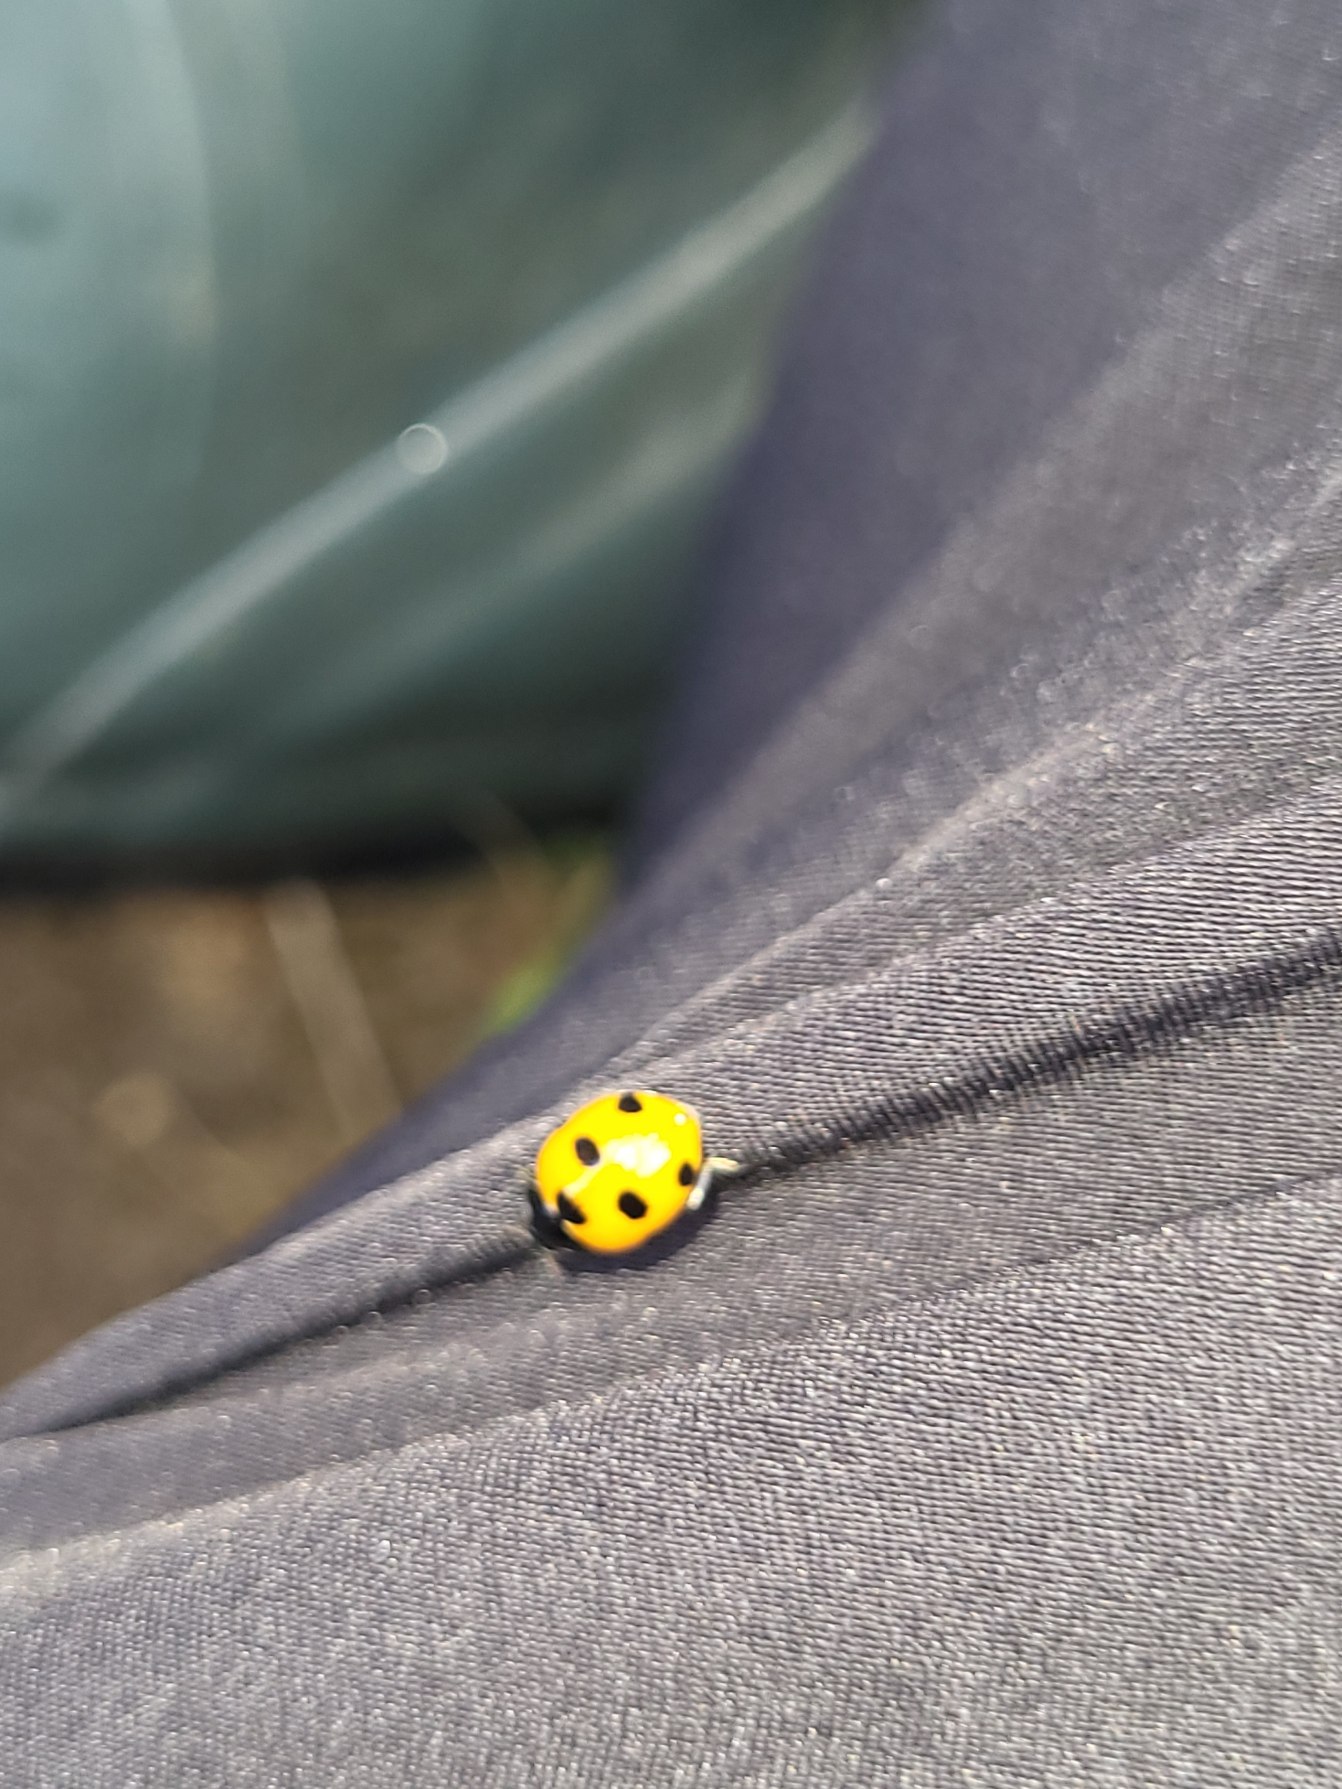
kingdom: Animalia
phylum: Arthropoda
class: Insecta
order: Coleoptera
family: Coccinellidae
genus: Coccinella
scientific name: Coccinella septempunctata
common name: Syvplettet mariehøne
